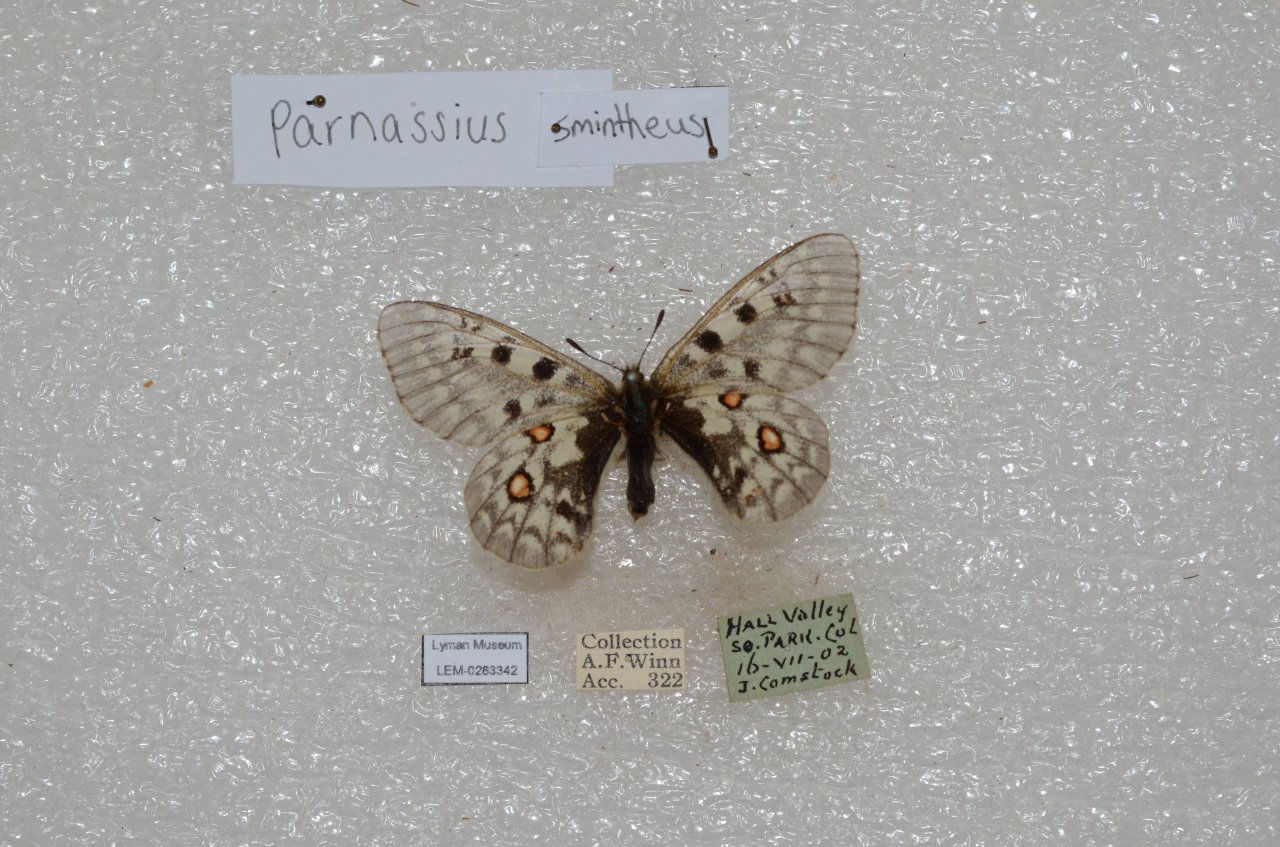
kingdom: Animalia
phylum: Arthropoda
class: Insecta
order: Lepidoptera
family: Papilionidae
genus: Parnassius
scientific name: Parnassius smintheus
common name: Rocky Mountain Parnassian
